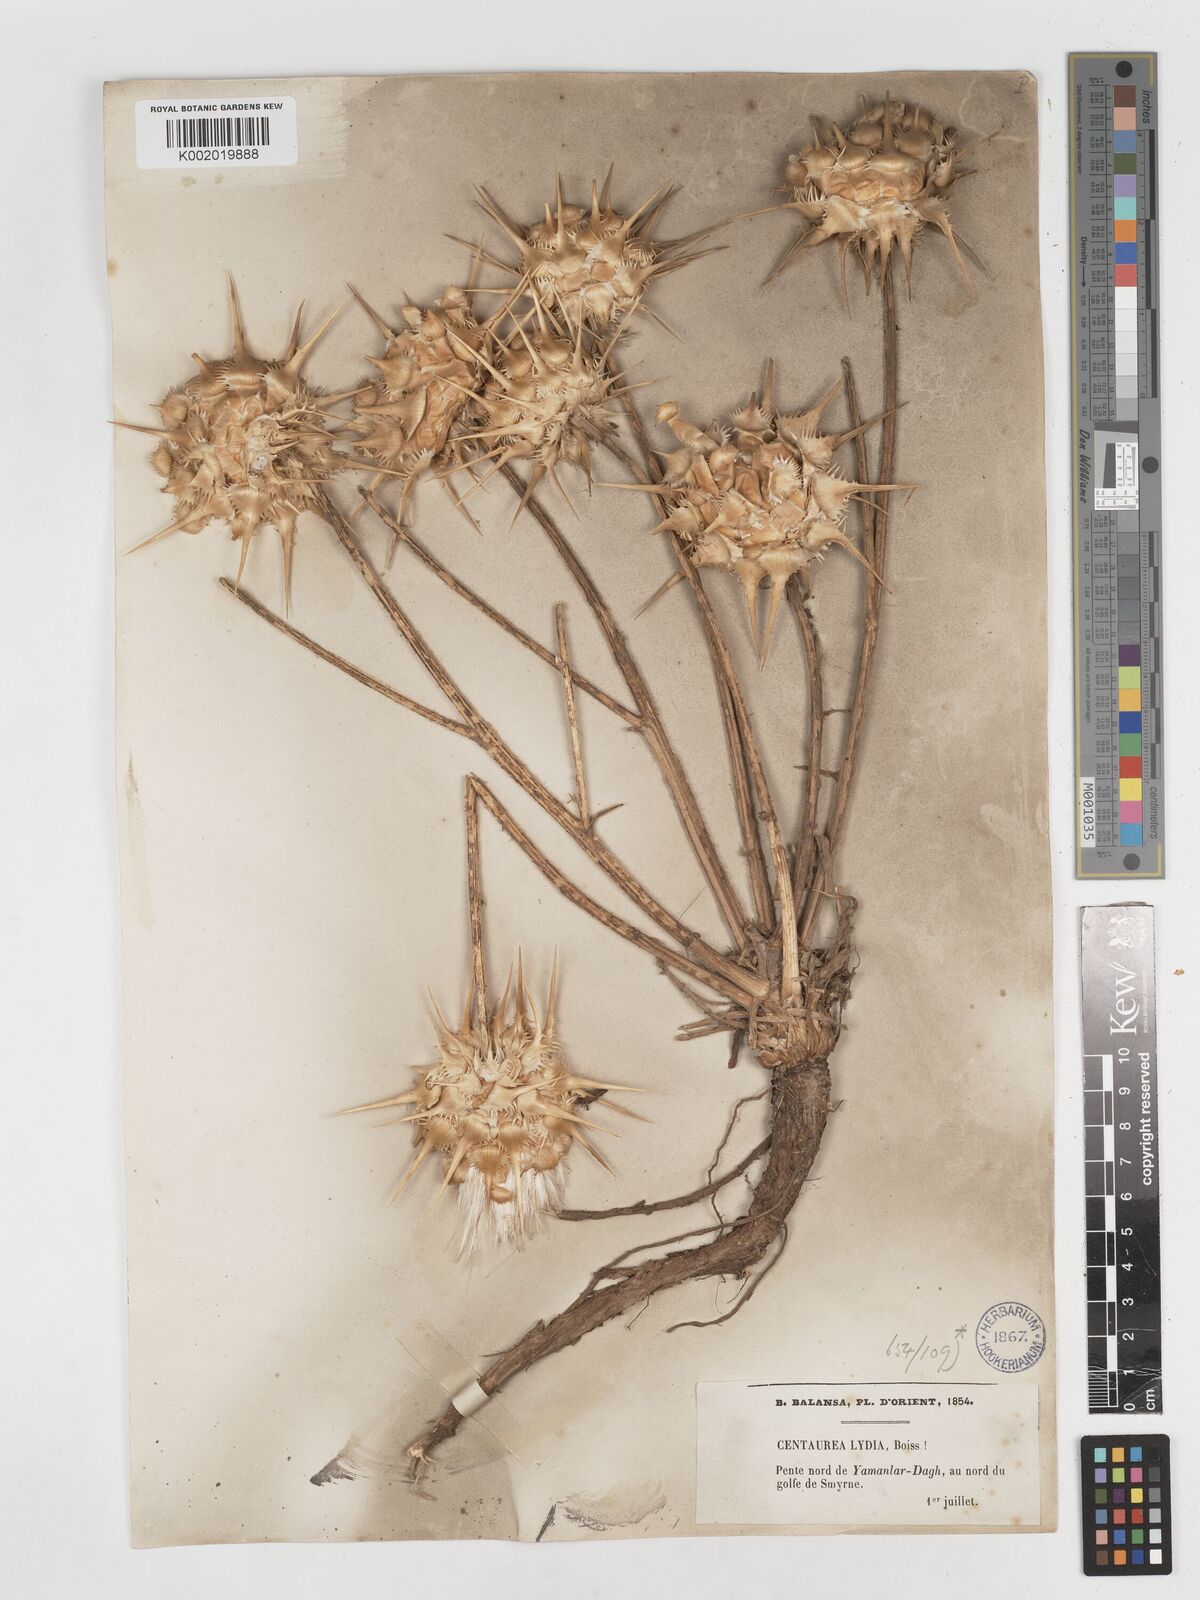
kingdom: Plantae
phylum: Tracheophyta
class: Magnoliopsida
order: Asterales
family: Asteraceae
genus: Centaurea
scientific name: Centaurea lydia
